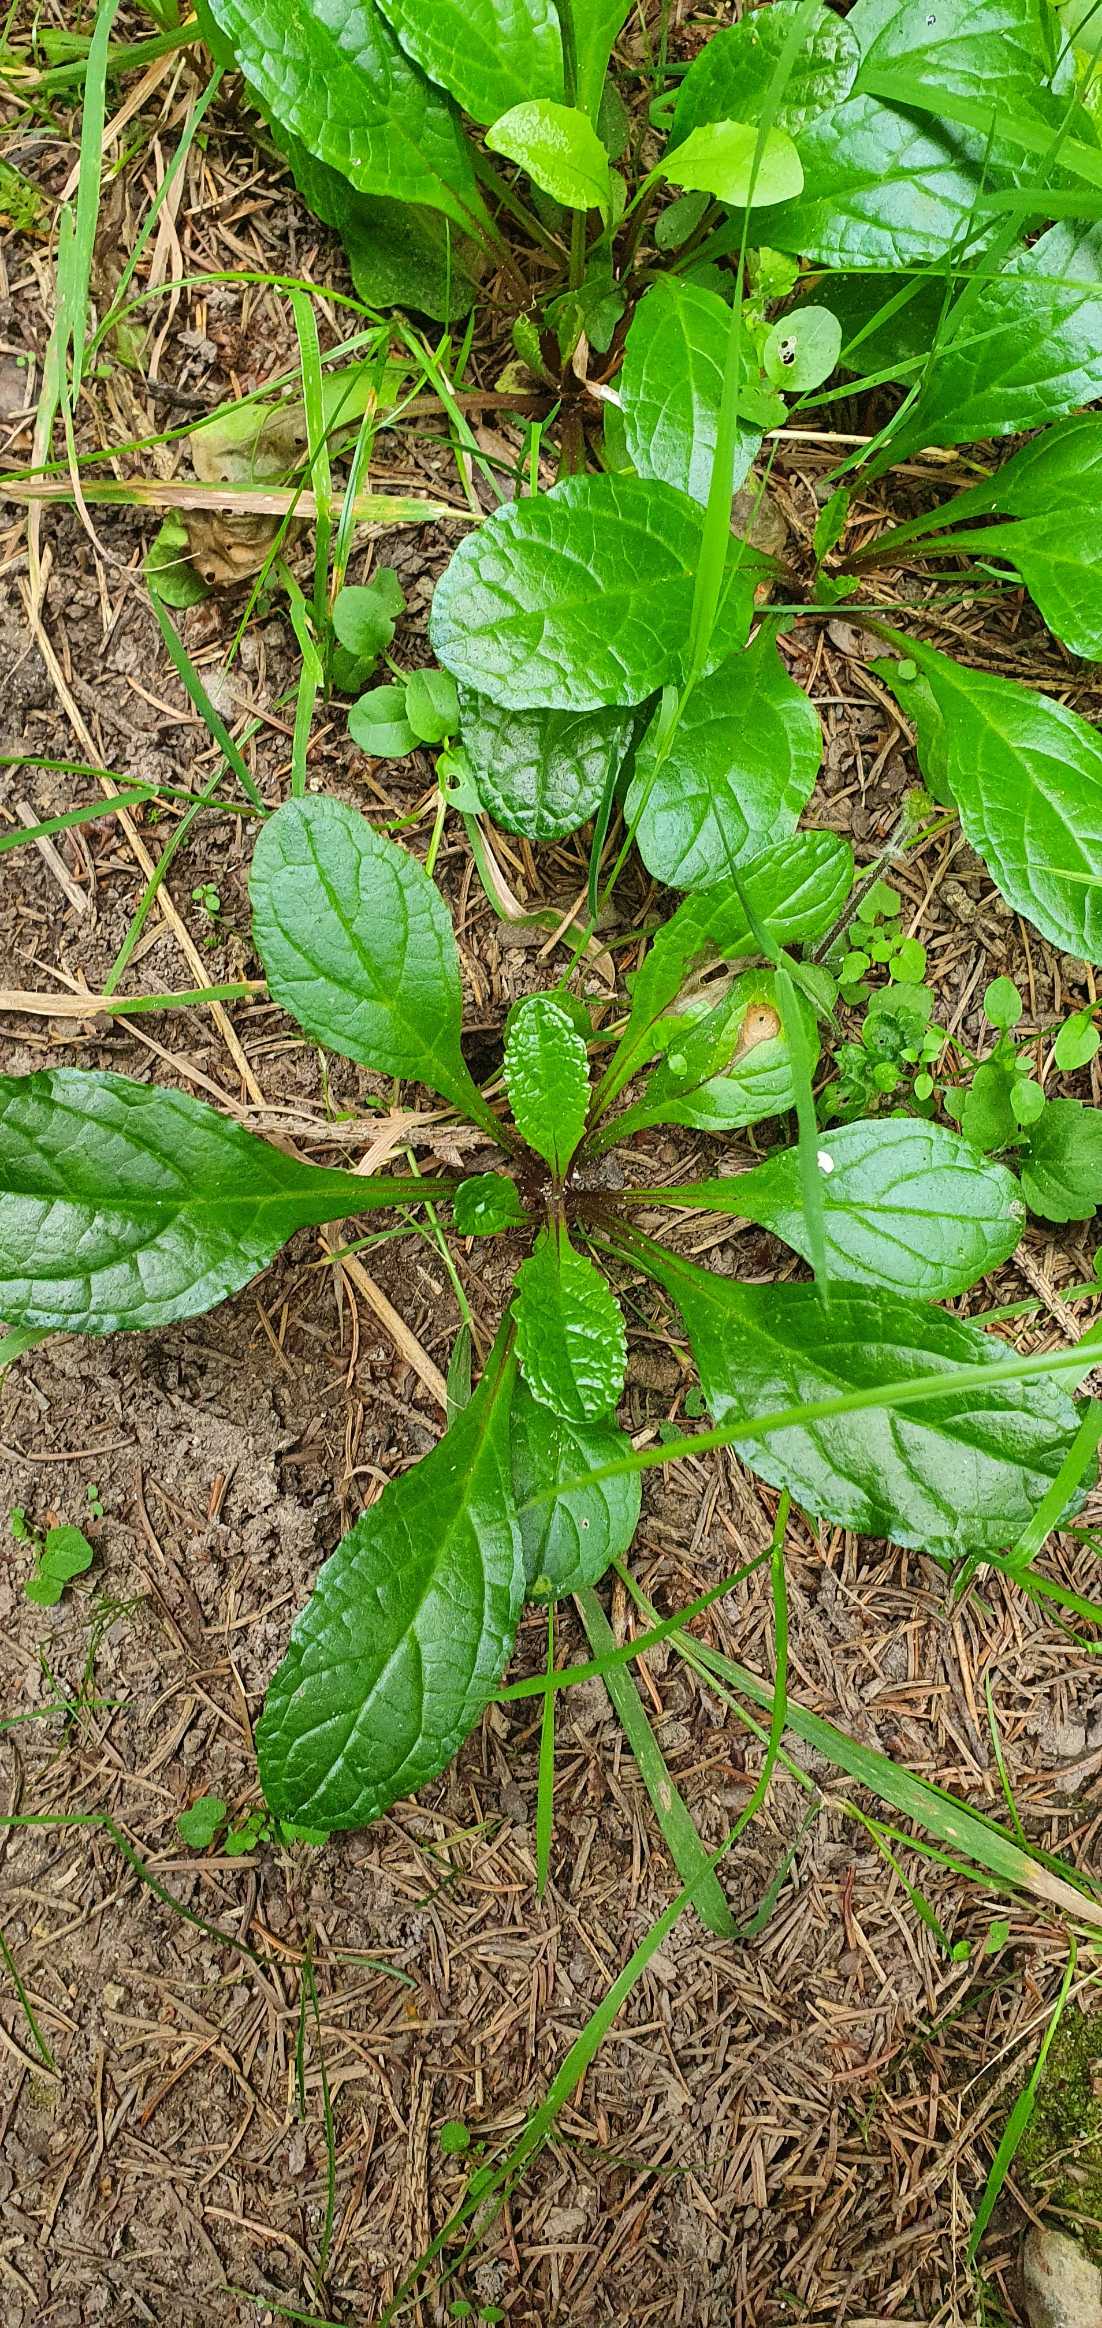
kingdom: Plantae
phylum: Tracheophyta
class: Magnoliopsida
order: Lamiales
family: Lamiaceae
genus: Ajuga
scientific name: Ajuga reptans
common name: Krybende læbeløs
